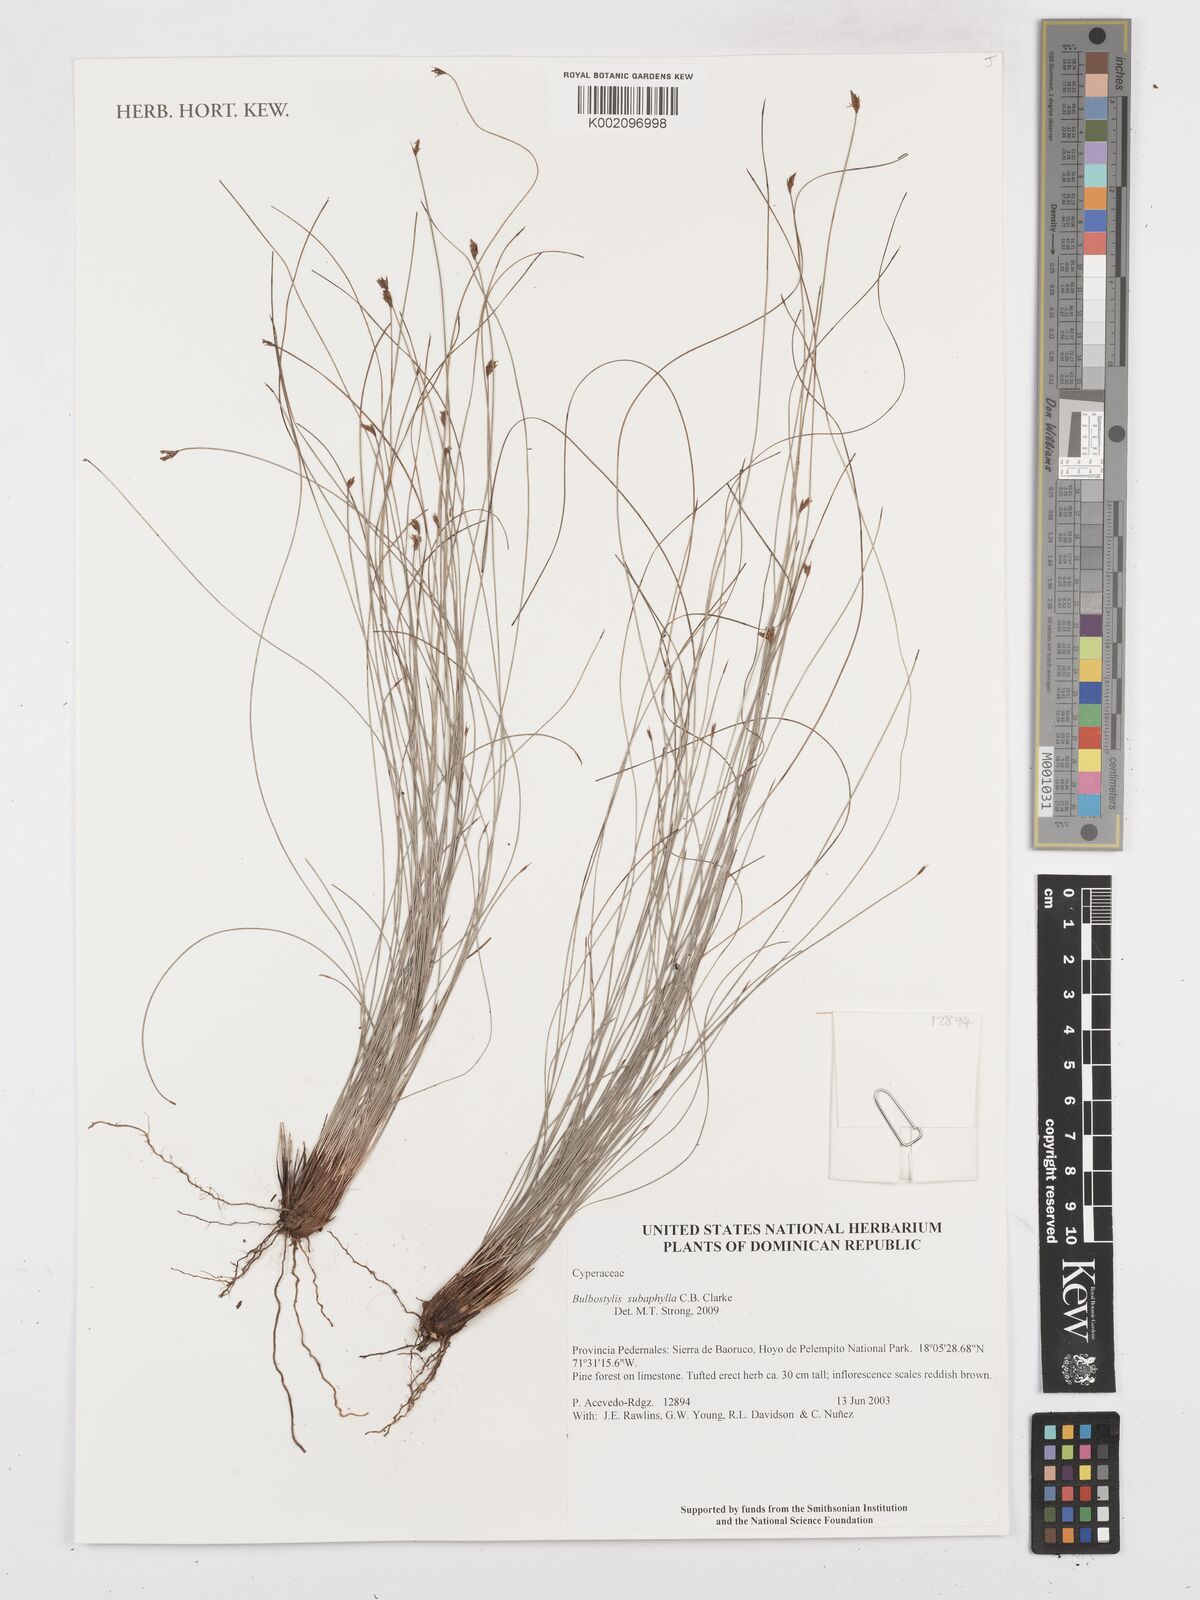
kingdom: Plantae
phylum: Tracheophyta
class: Liliopsida
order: Poales
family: Cyperaceae
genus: Bulbostylis
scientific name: Bulbostylis subaphylla
